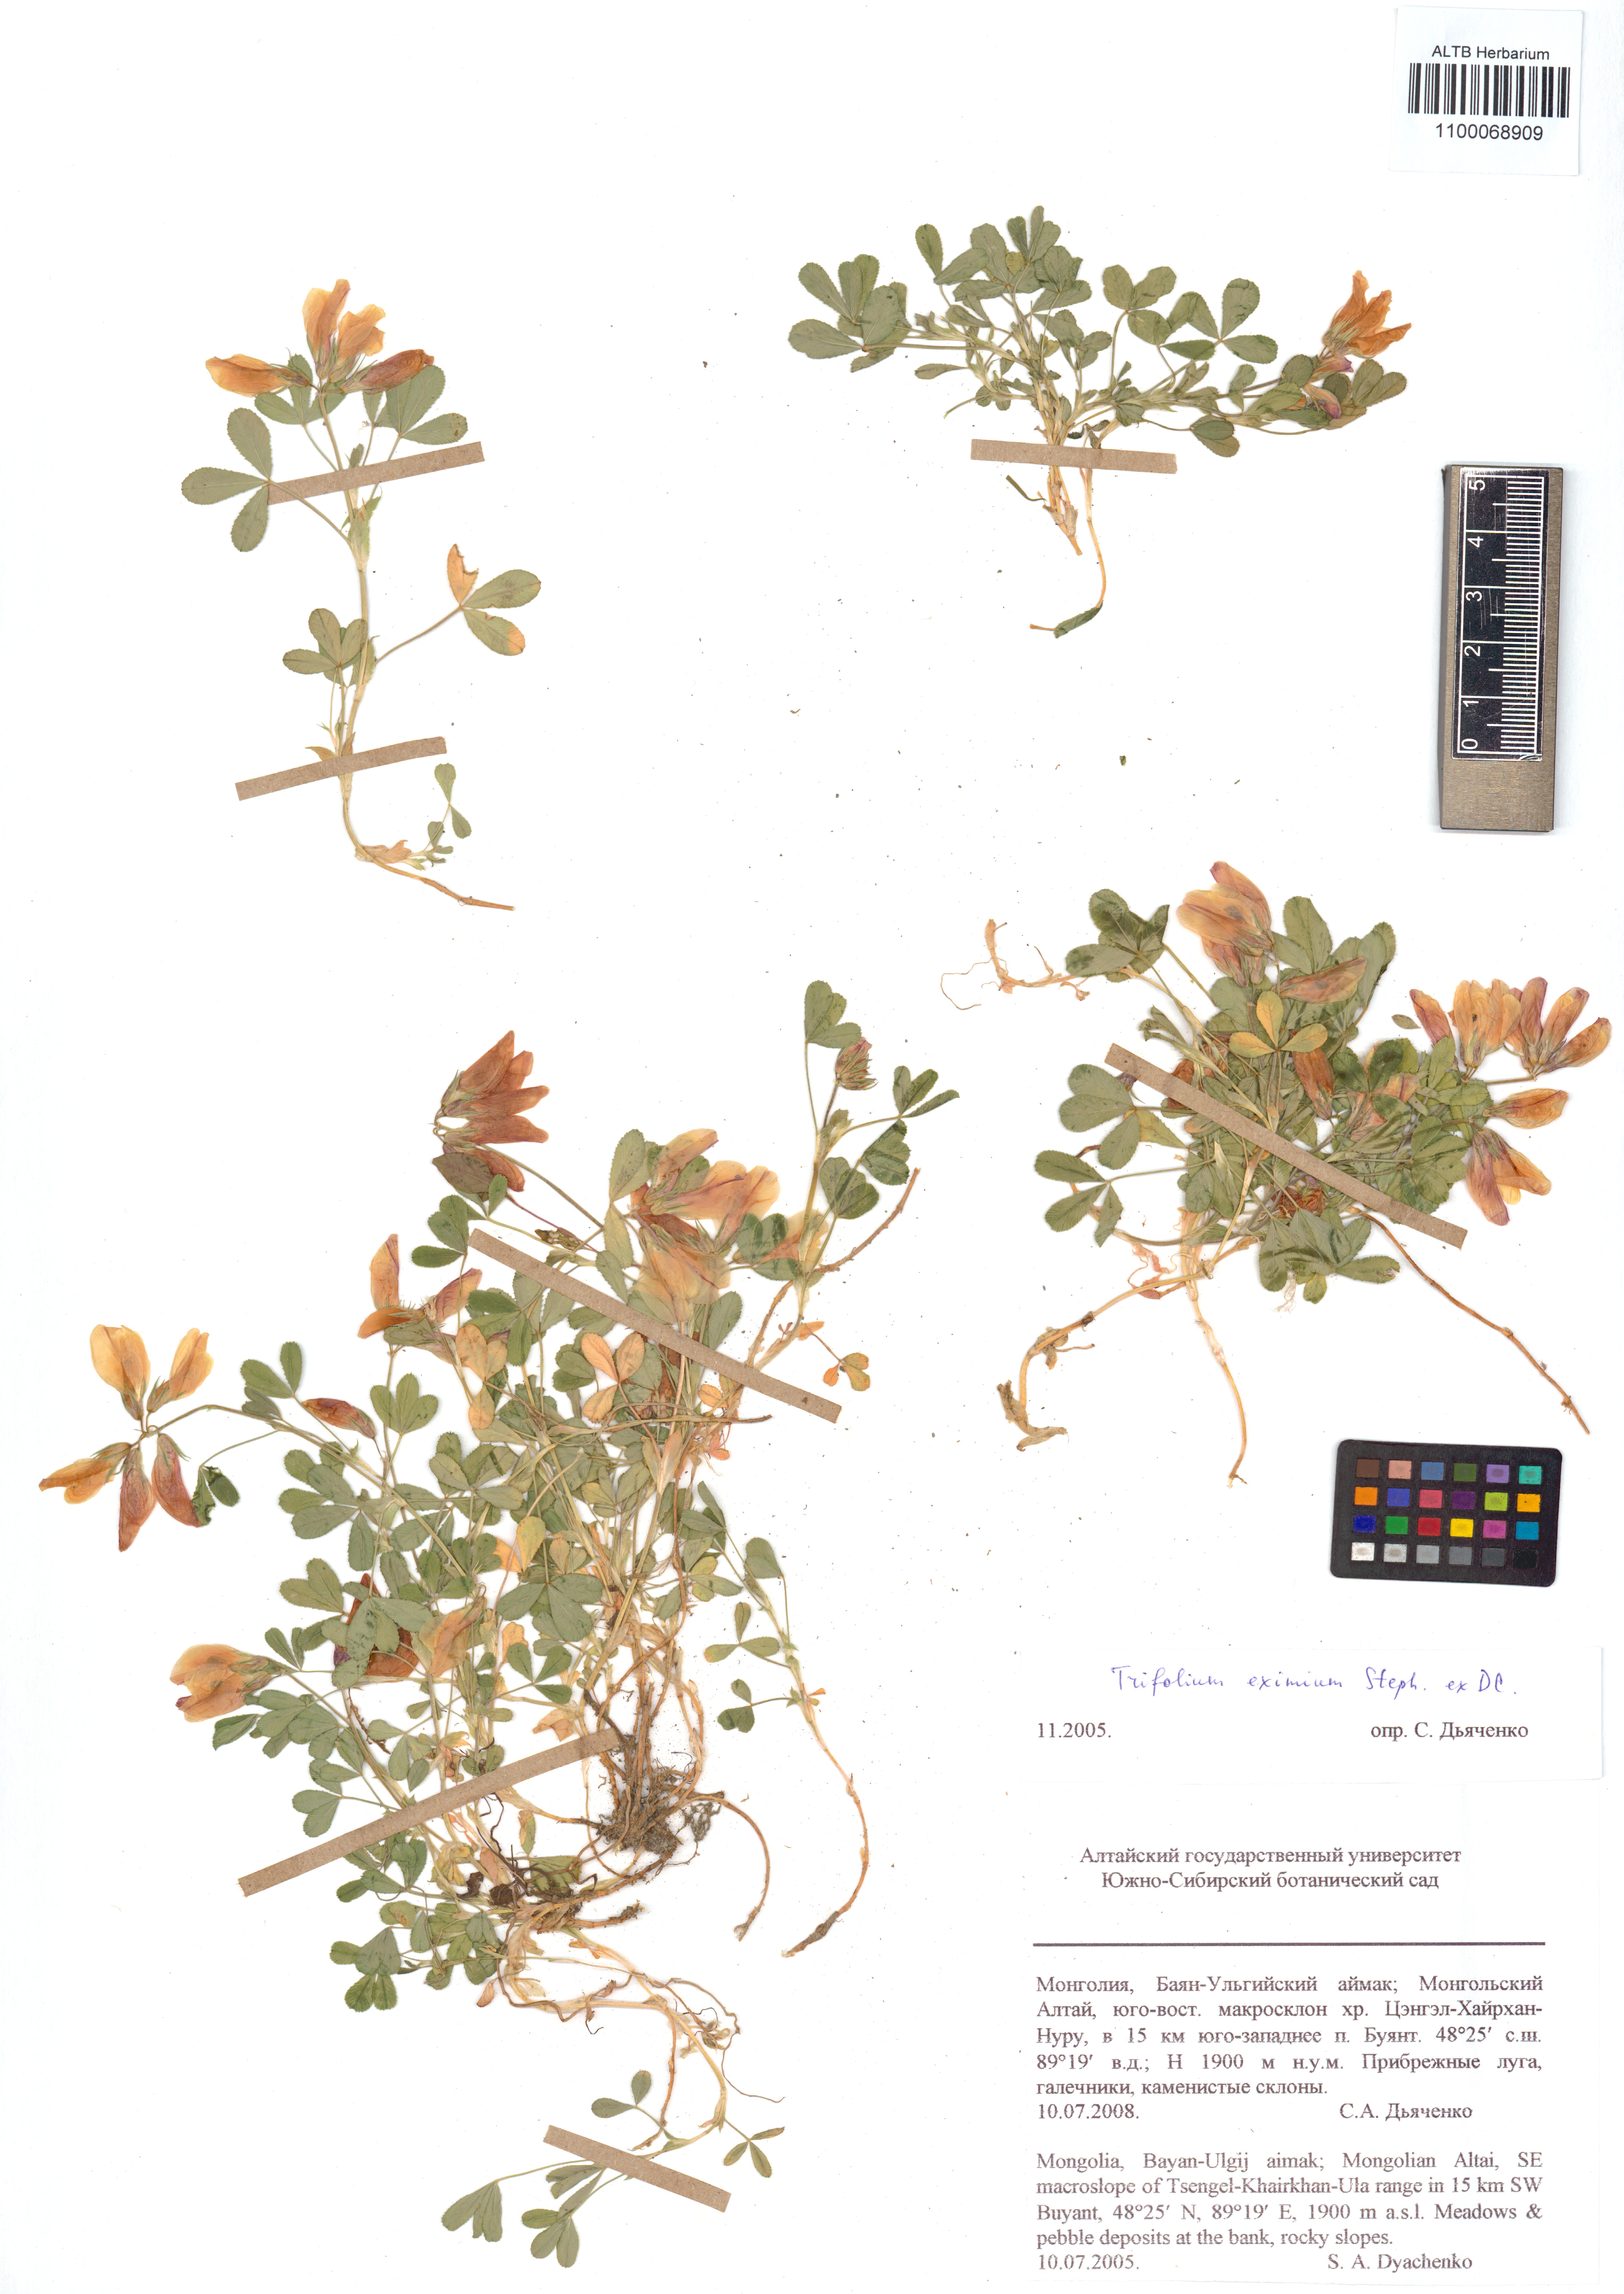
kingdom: Plantae
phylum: Tracheophyta
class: Magnoliopsida
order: Fabales
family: Fabaceae
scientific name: Fabaceae
